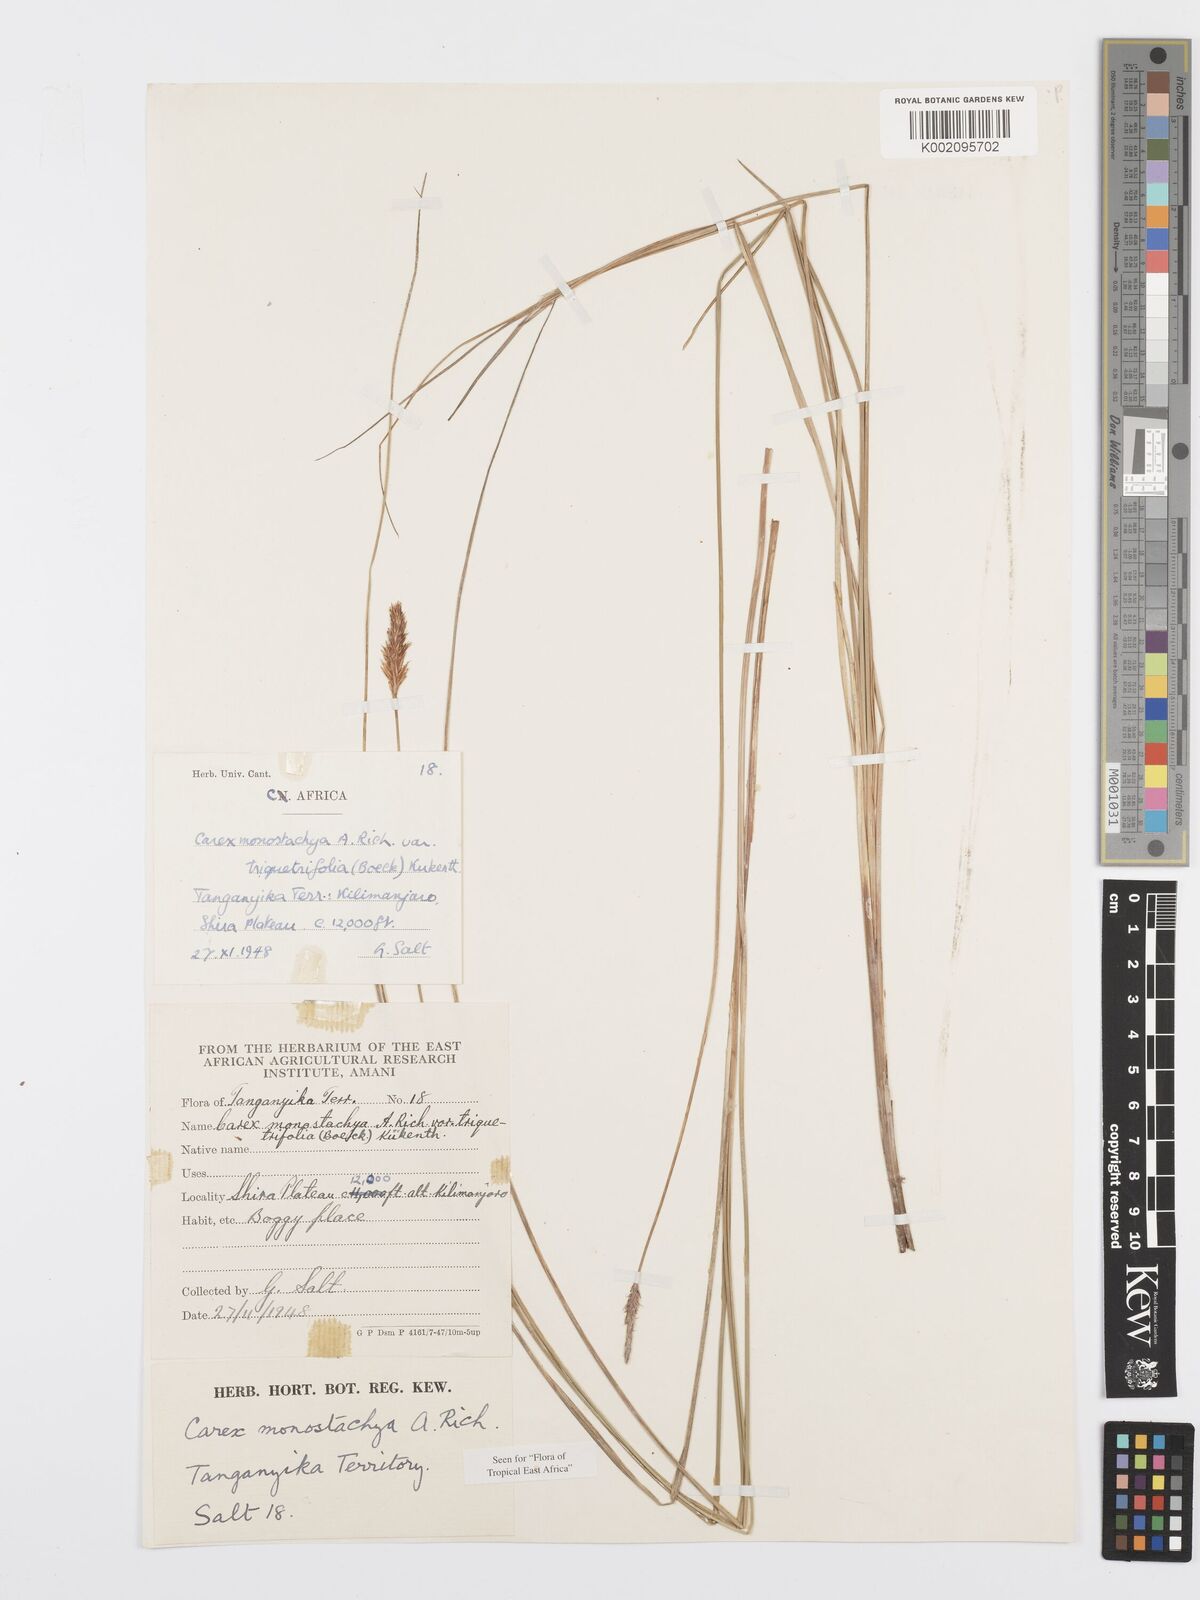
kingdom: Plantae
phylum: Tracheophyta
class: Liliopsida
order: Poales
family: Cyperaceae
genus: Carex
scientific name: Carex monostachya
